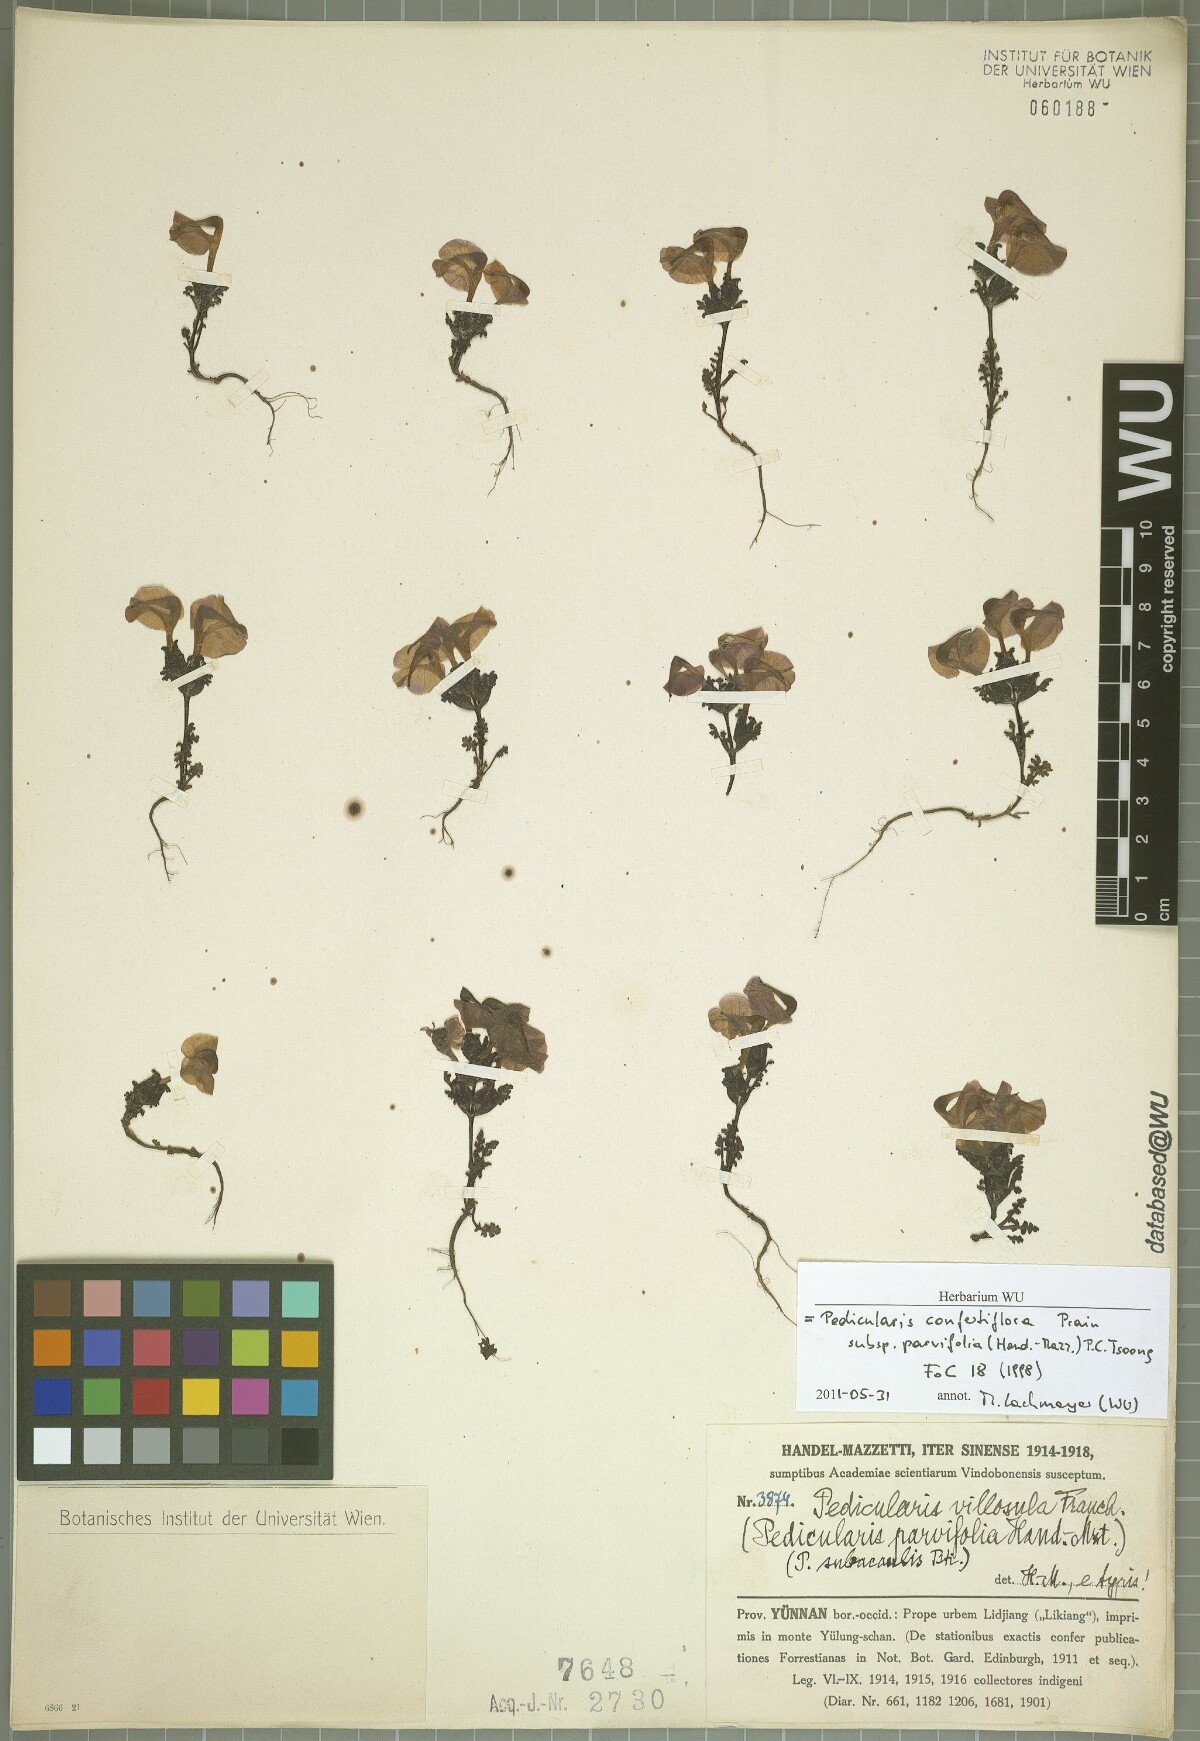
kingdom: Plantae
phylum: Tracheophyta
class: Magnoliopsida
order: Lamiales
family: Orobanchaceae
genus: Pedicularis
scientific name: Pedicularis confertiflora
